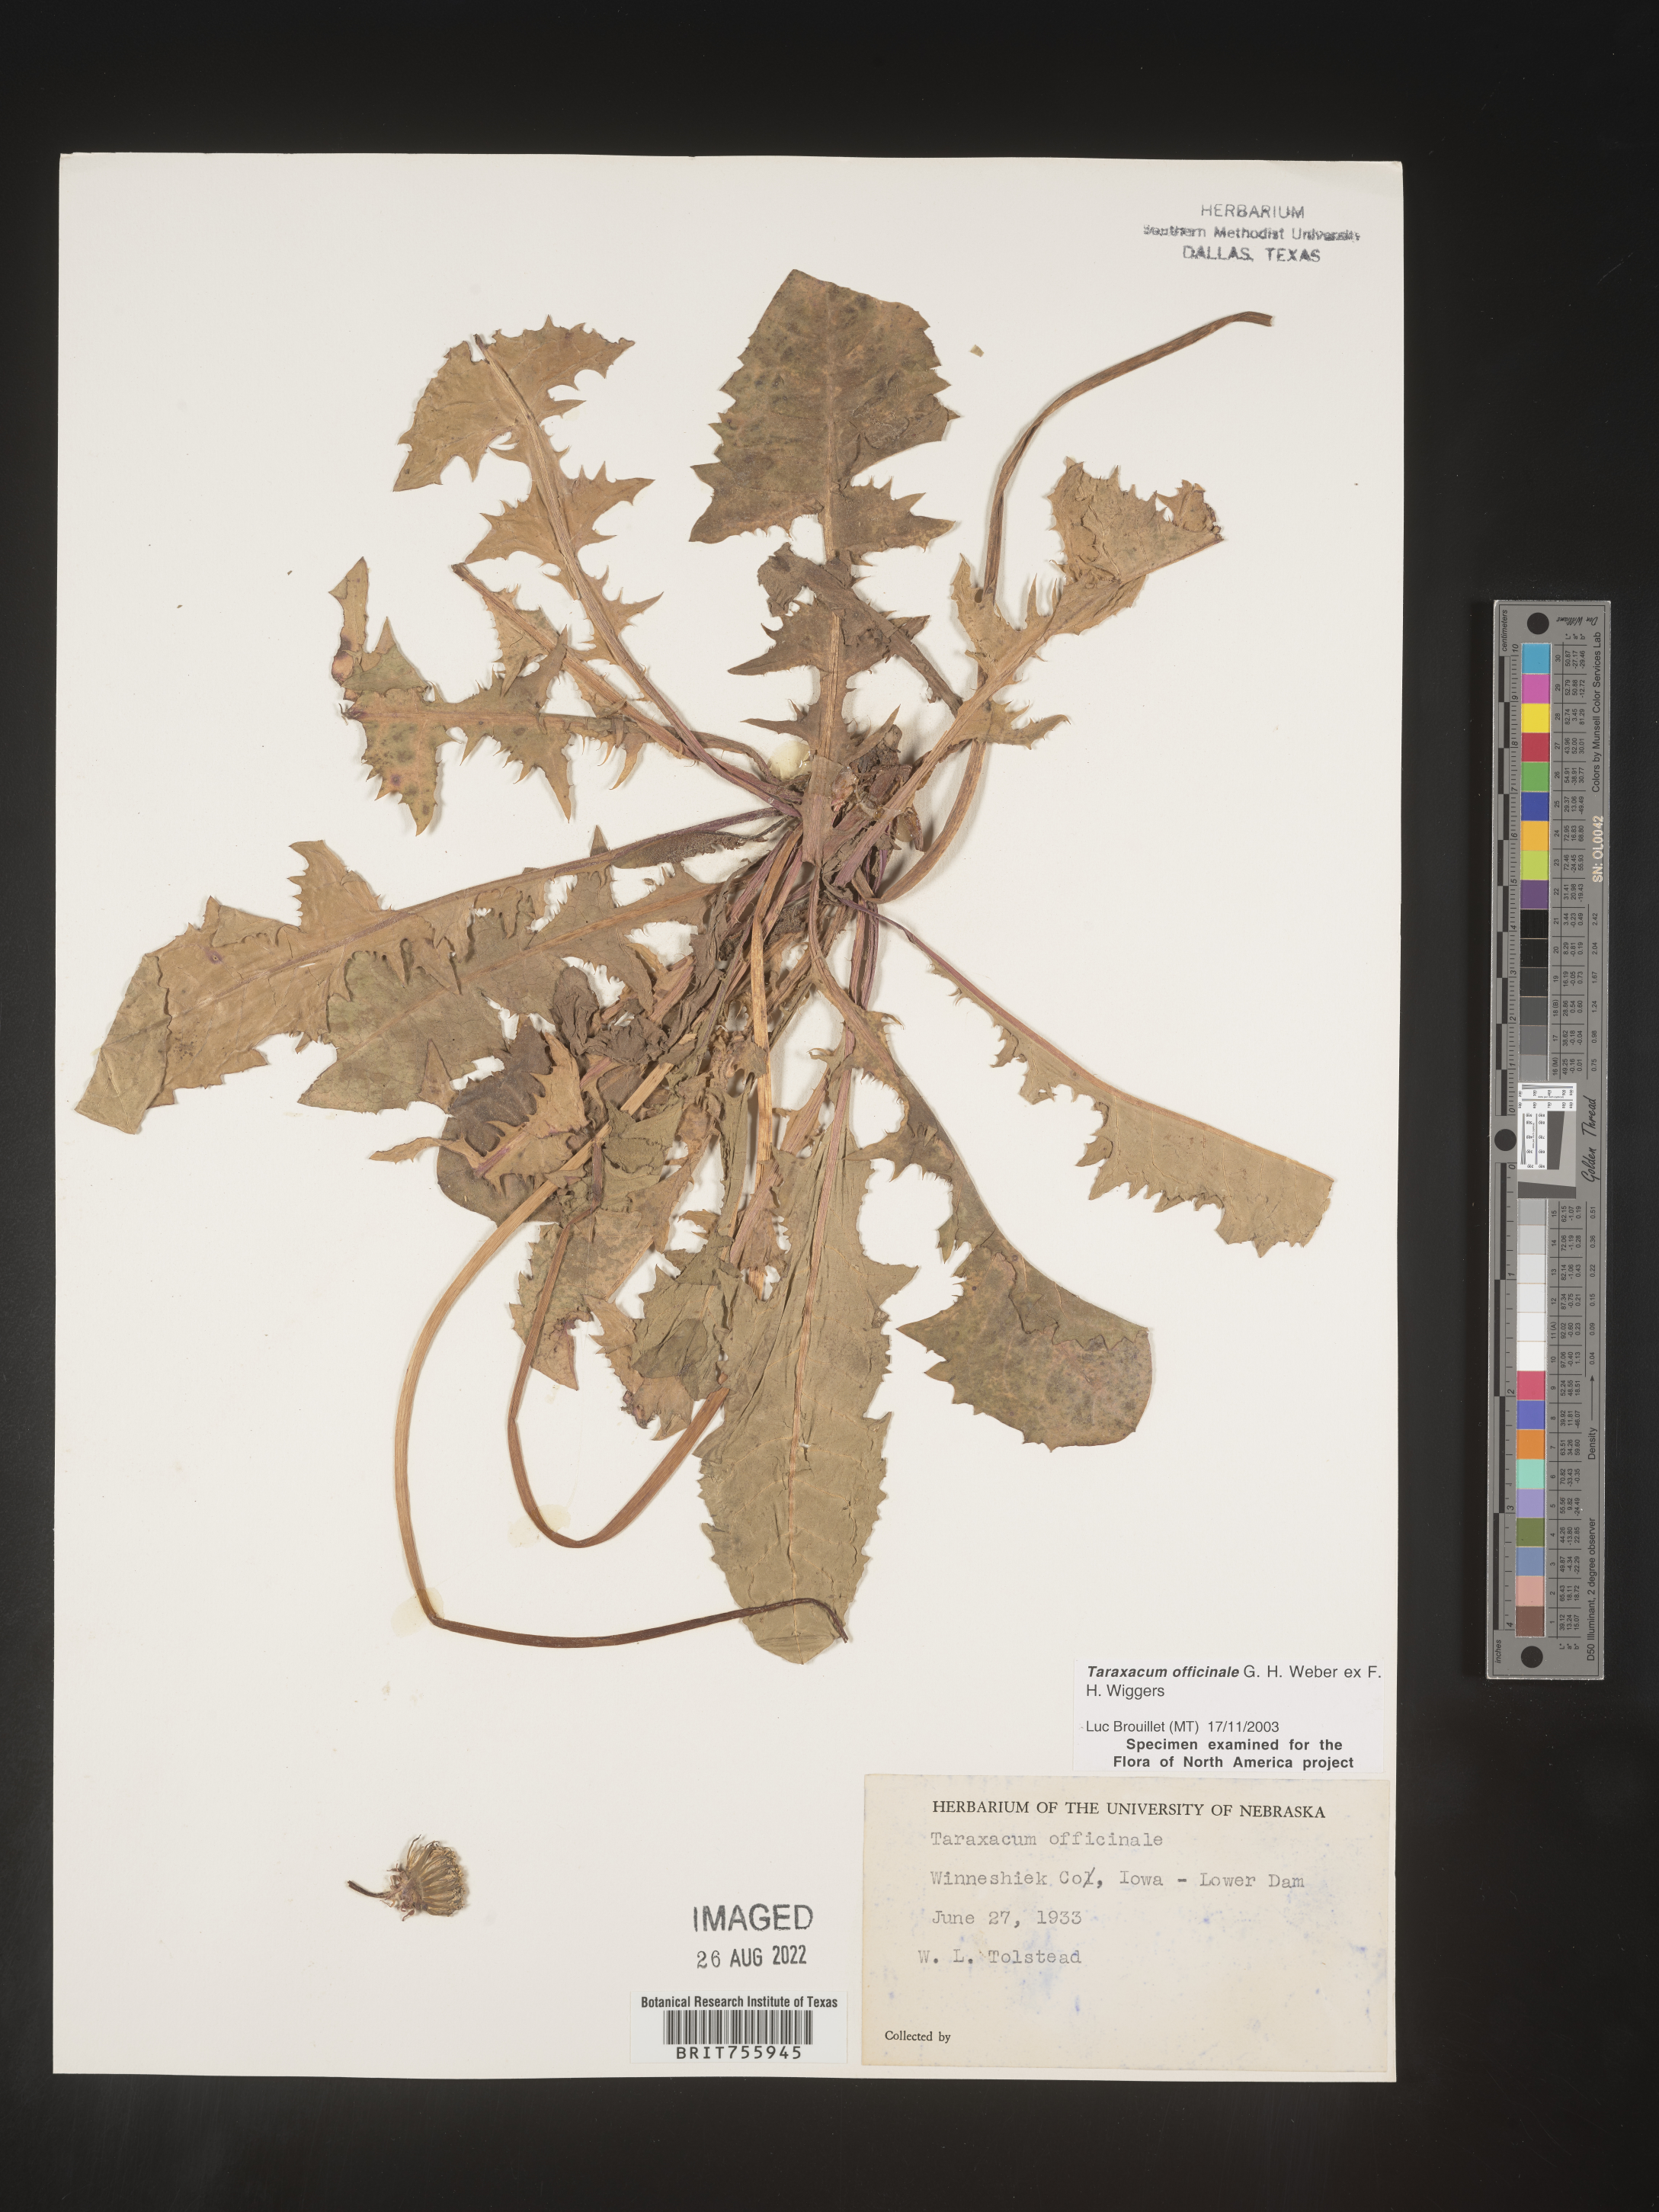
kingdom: Plantae
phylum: Tracheophyta
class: Magnoliopsida
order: Asterales
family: Asteraceae
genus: Taraxacum
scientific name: Taraxacum officinale
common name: Common dandelion
